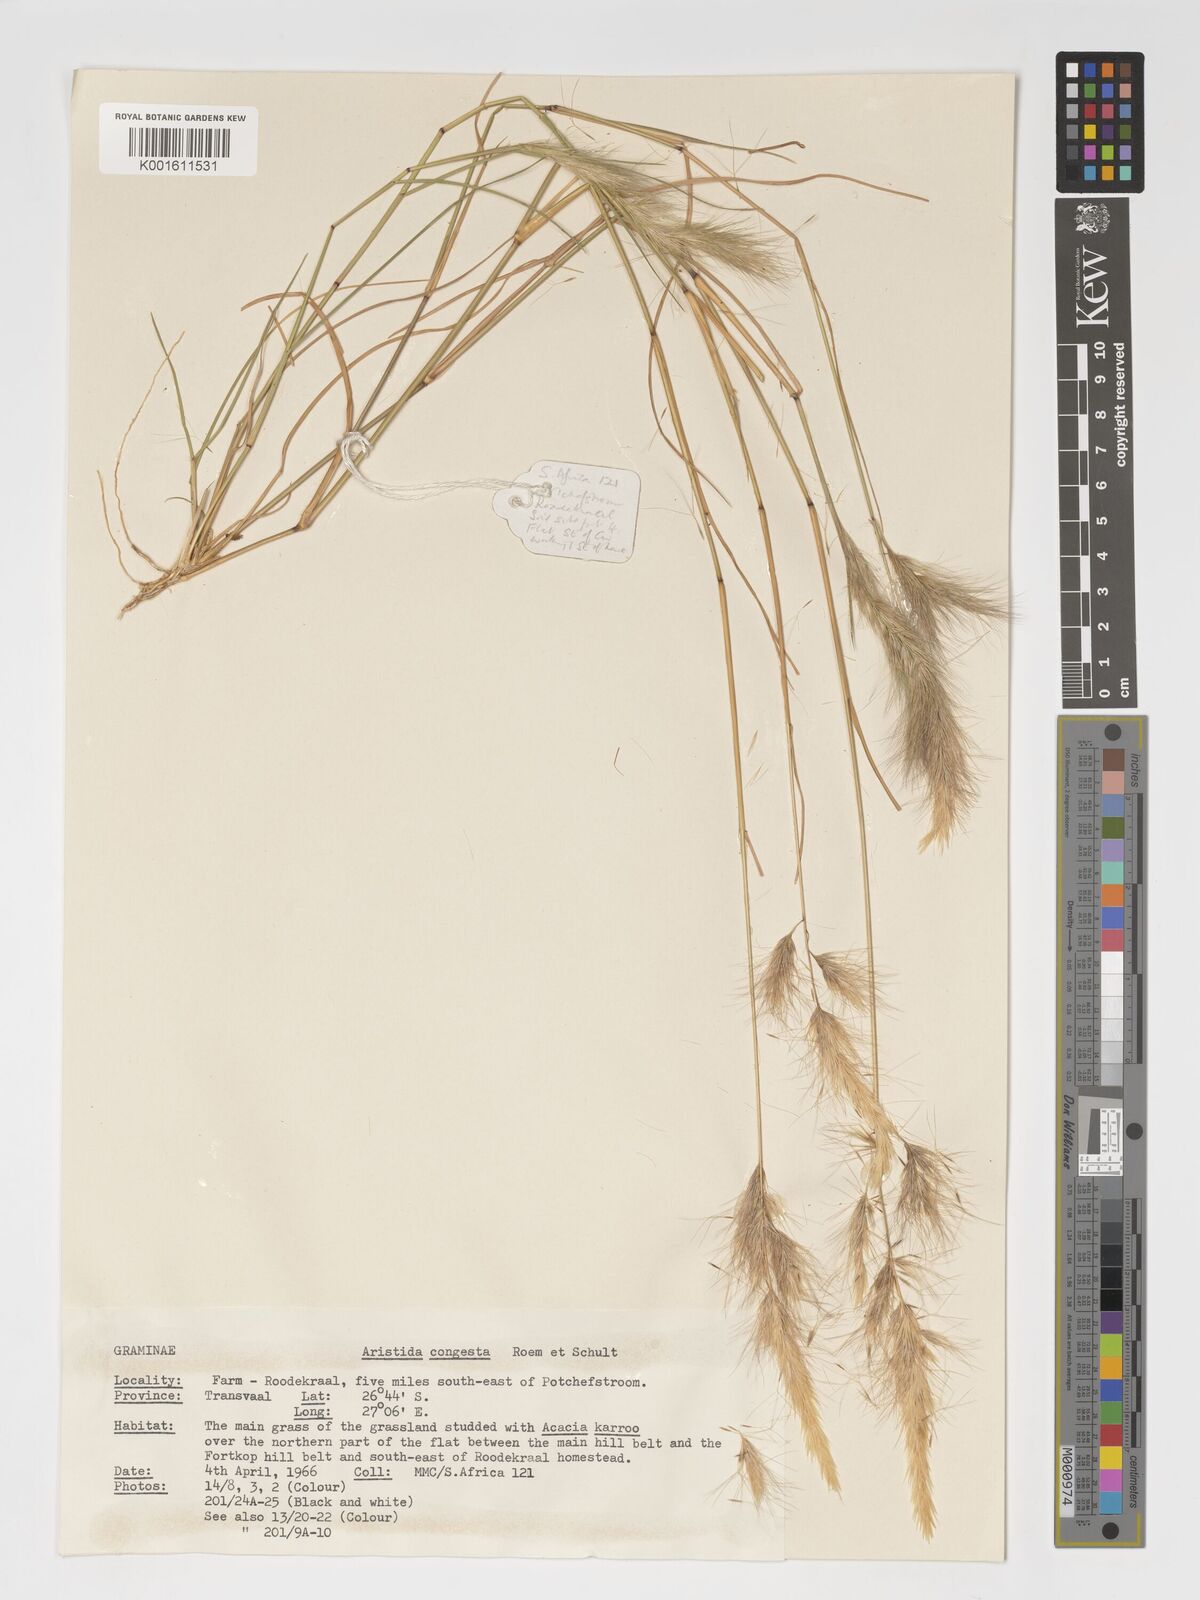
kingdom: Plantae
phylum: Tracheophyta
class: Liliopsida
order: Poales
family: Poaceae
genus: Aristida
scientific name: Aristida congesta
